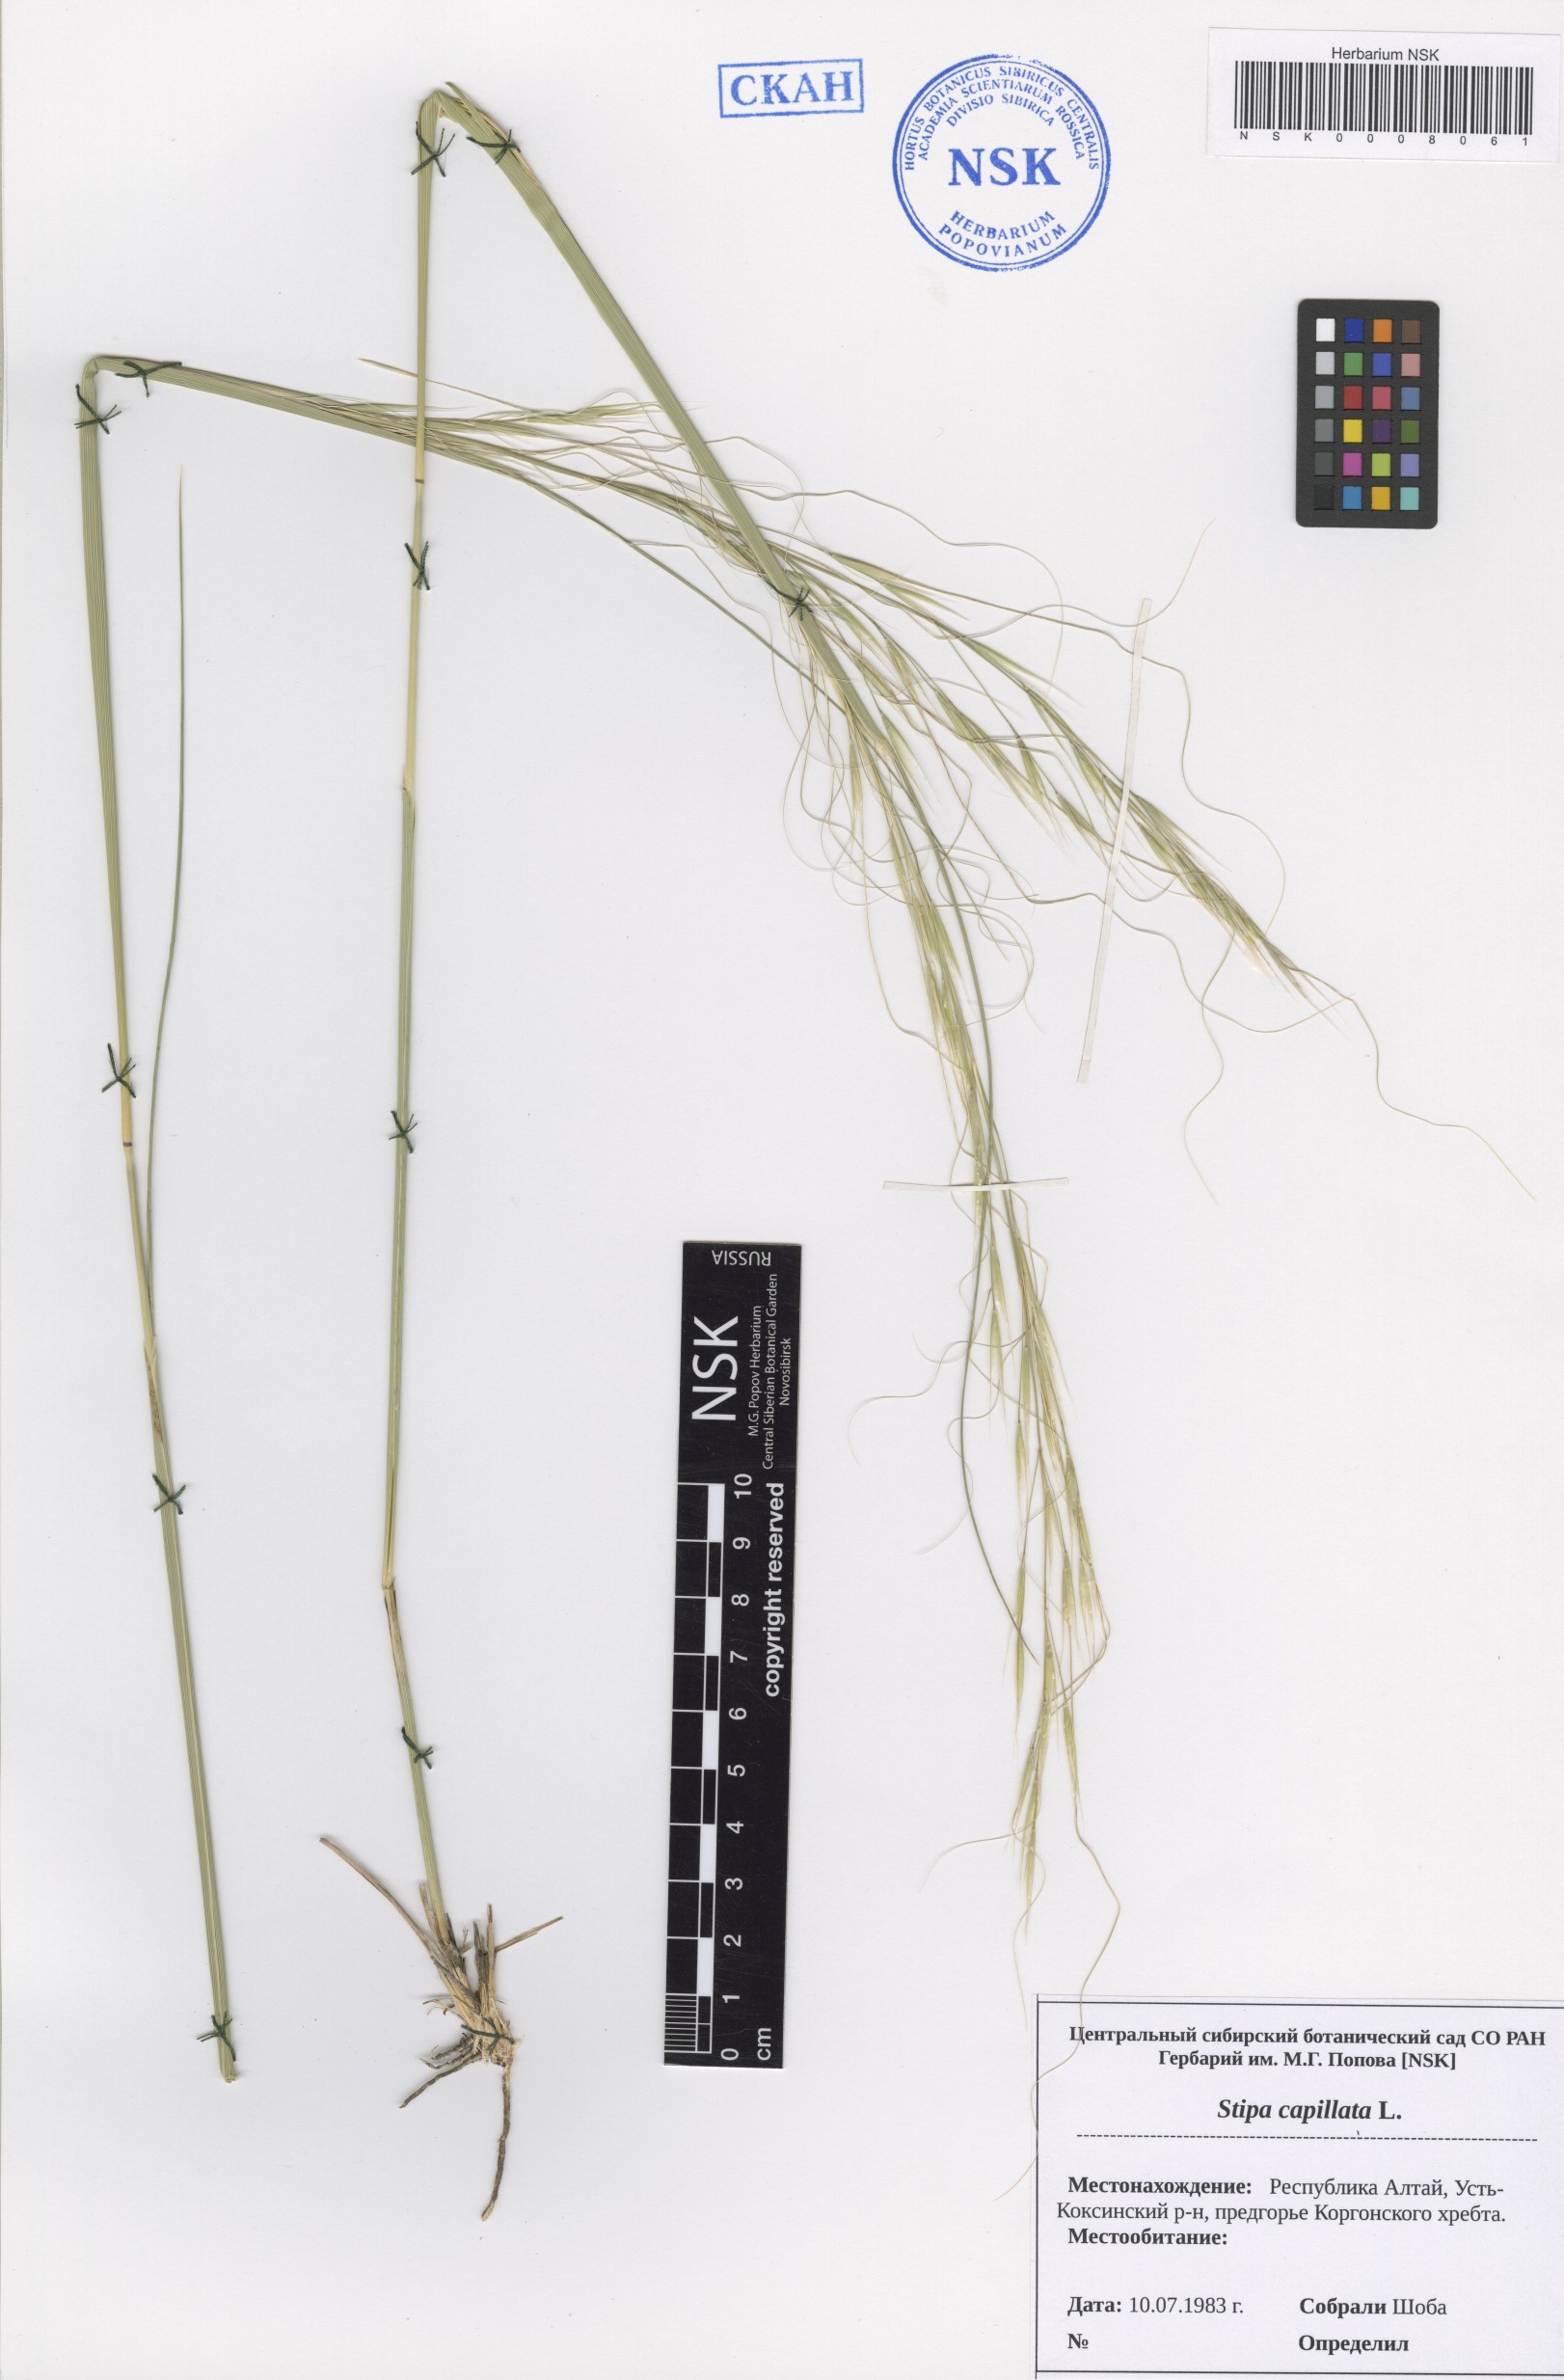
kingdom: Plantae
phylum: Tracheophyta
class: Liliopsida
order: Poales
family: Poaceae
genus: Stipa
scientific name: Stipa capillata
